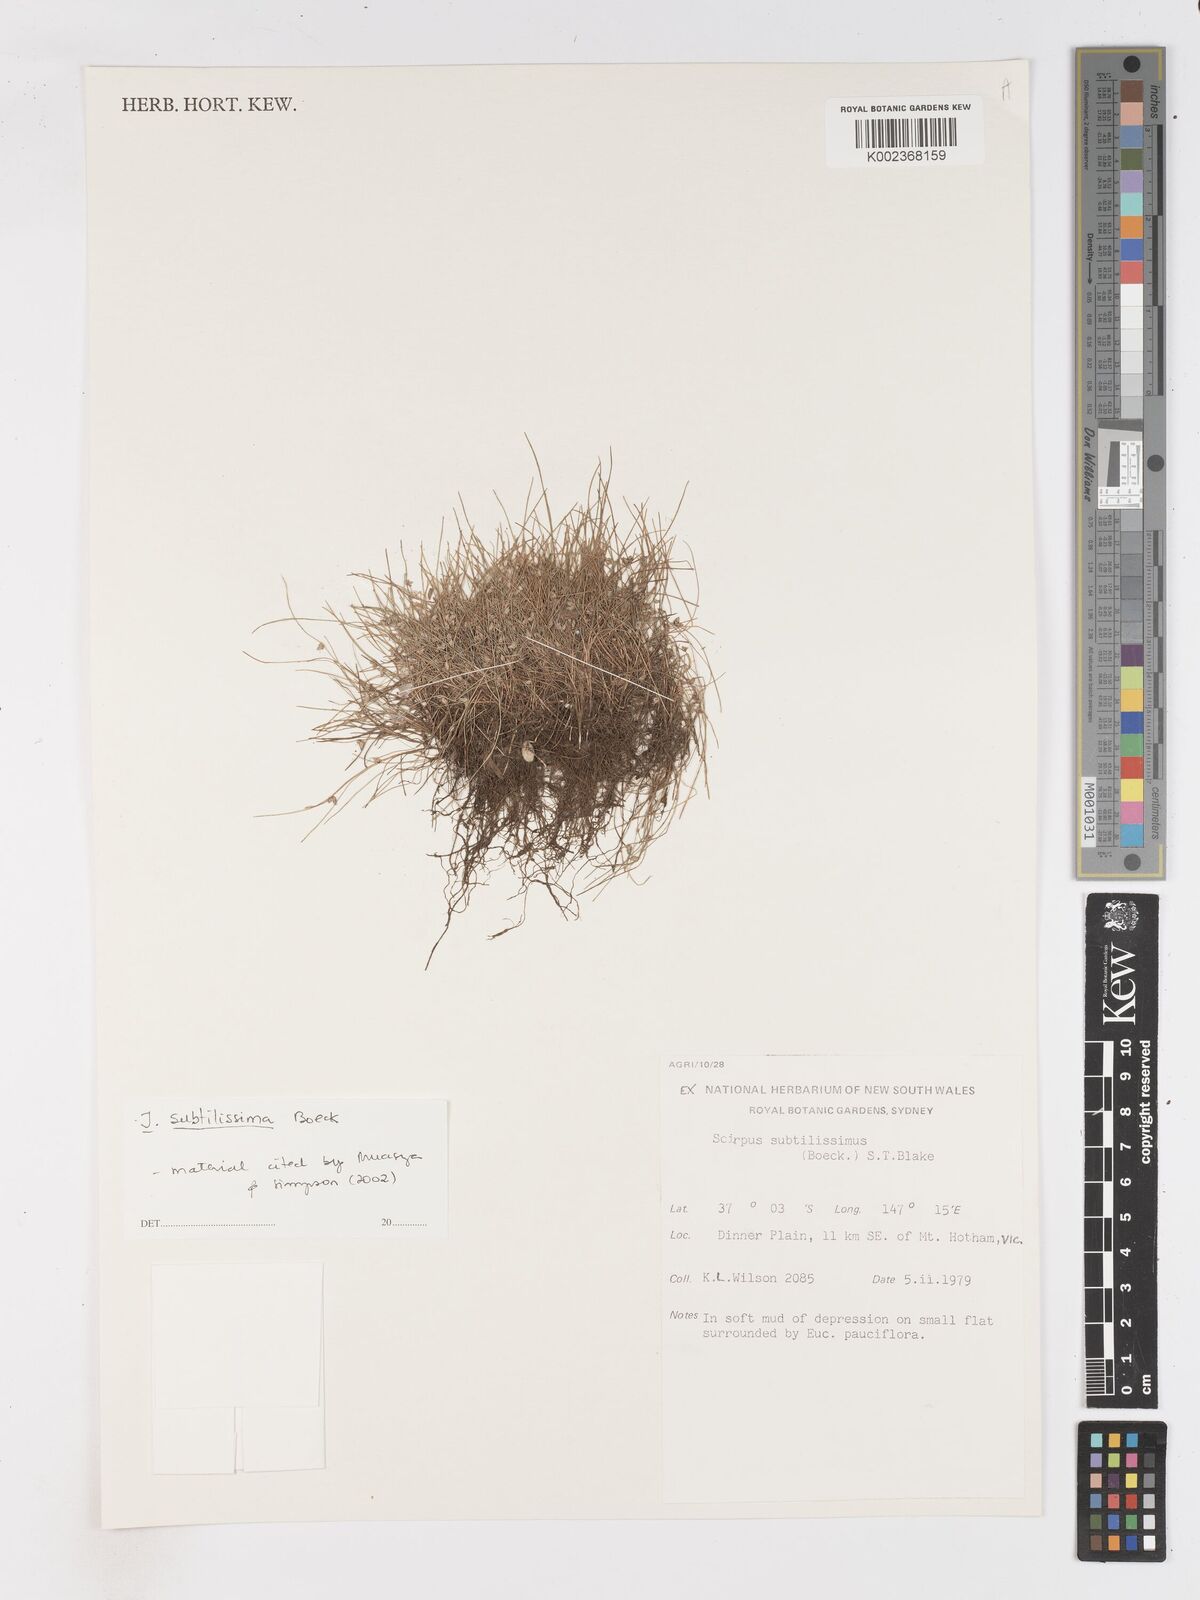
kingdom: Plantae
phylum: Tracheophyta
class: Liliopsida
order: Poales
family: Cyperaceae
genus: Isolepis
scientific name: Isolepis subtilissima
